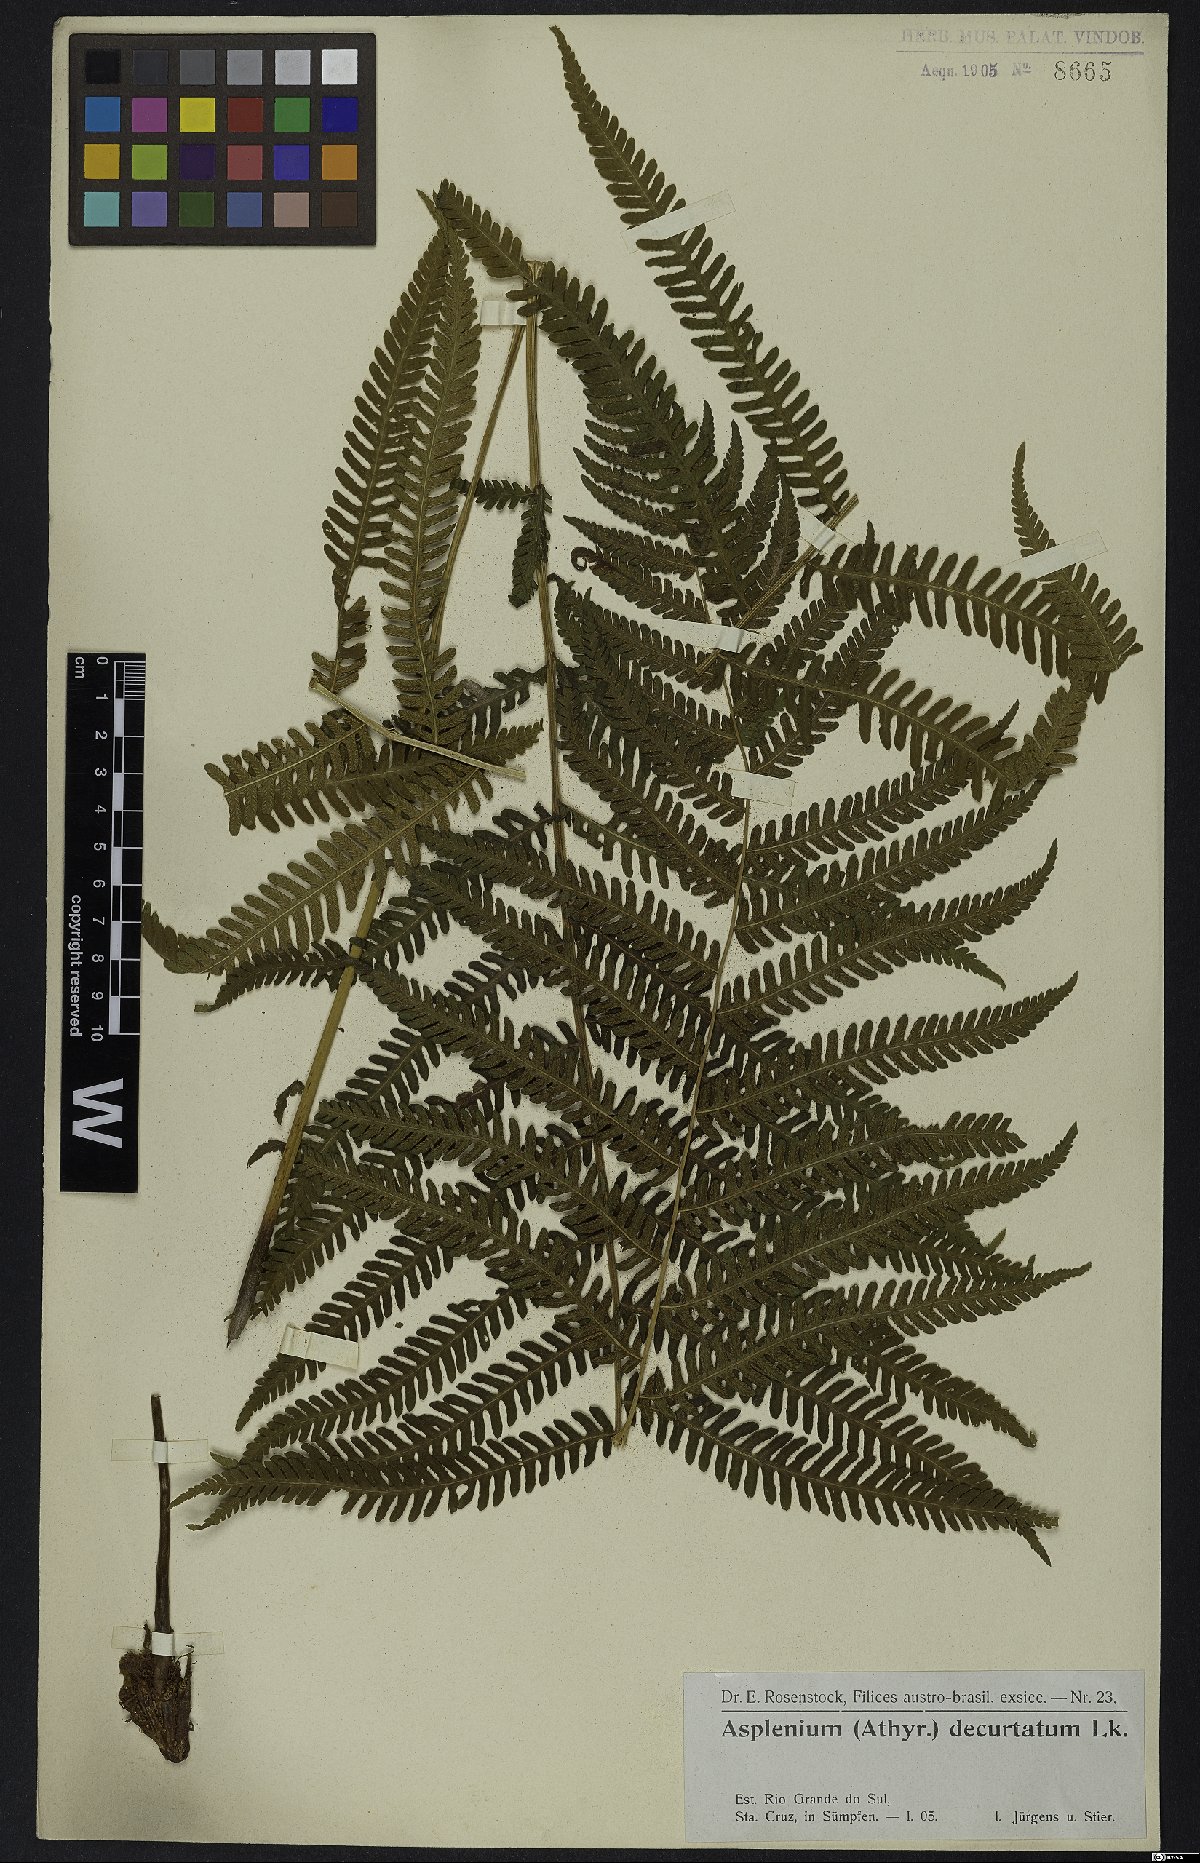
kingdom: Plantae
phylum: Tracheophyta
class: Polypodiopsida
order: Polypodiales
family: Thelypteridaceae
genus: Amauropelta
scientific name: Amauropelta decurtata
